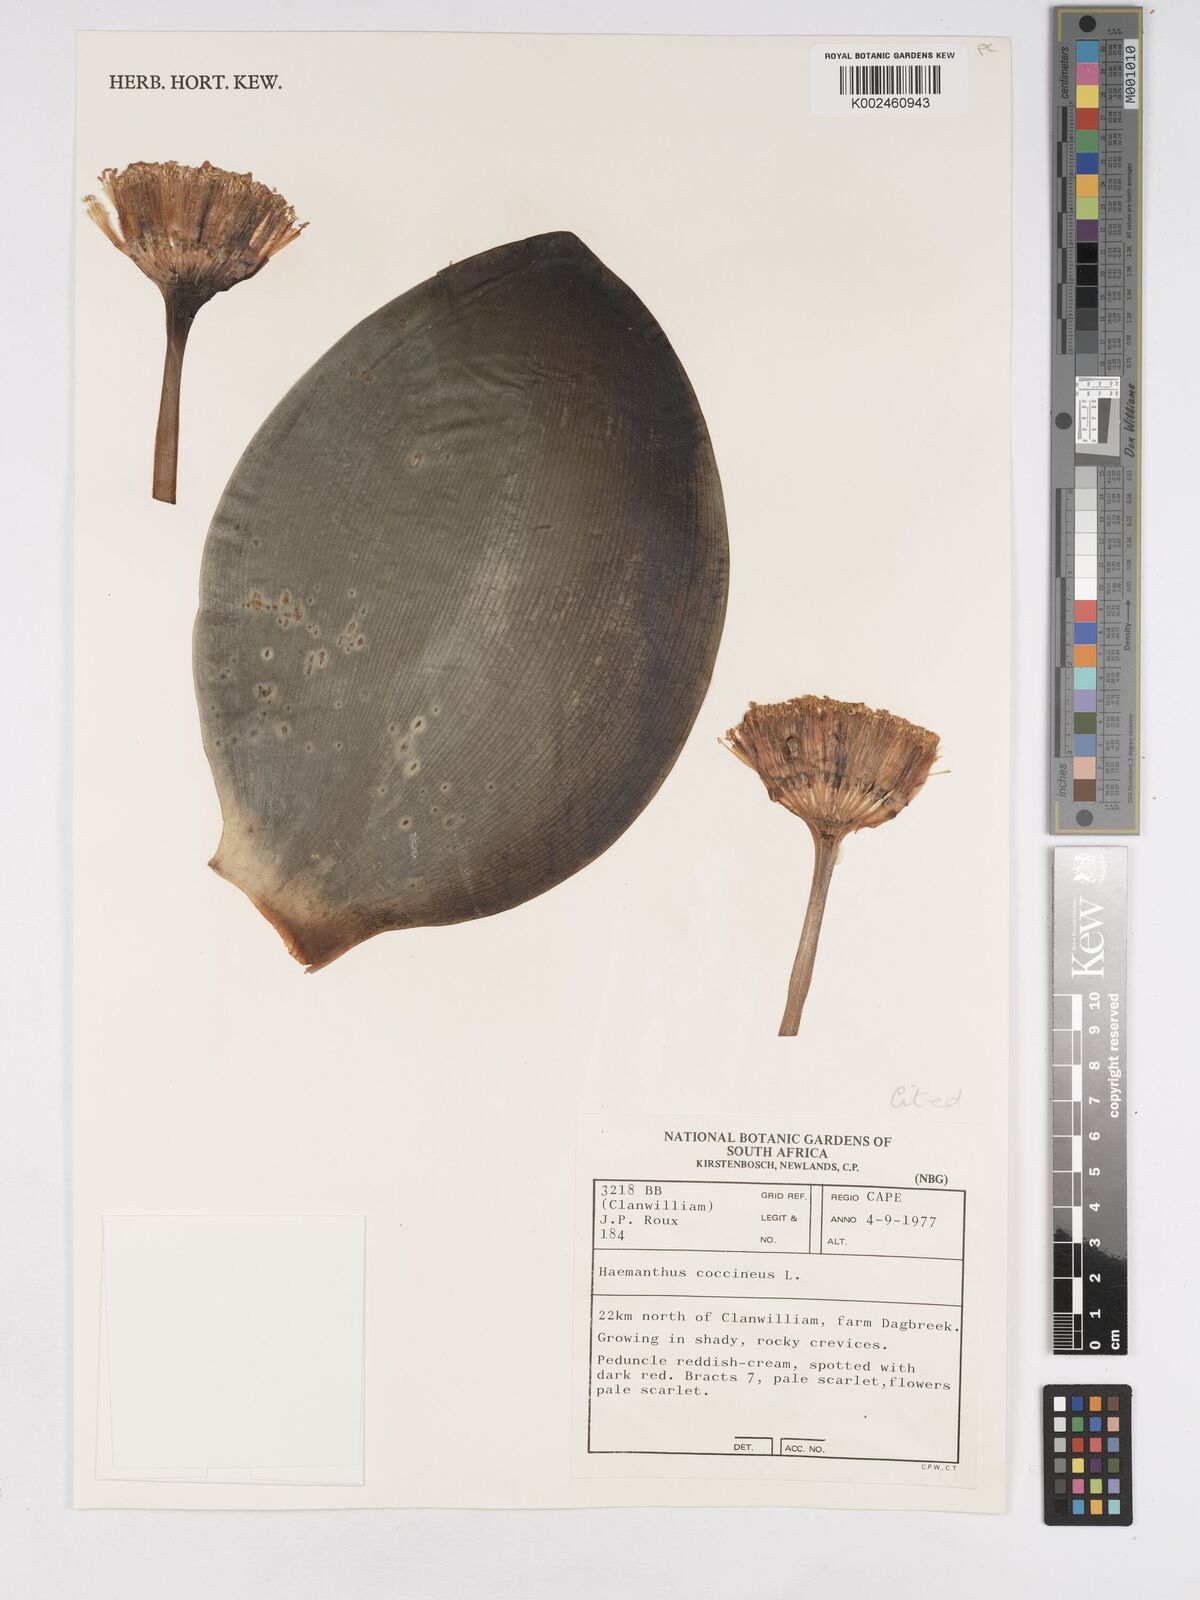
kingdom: Plantae
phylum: Tracheophyta
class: Liliopsida
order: Asparagales
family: Amaryllidaceae
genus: Haemanthus
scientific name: Haemanthus coccineus
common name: Cape-tulip
